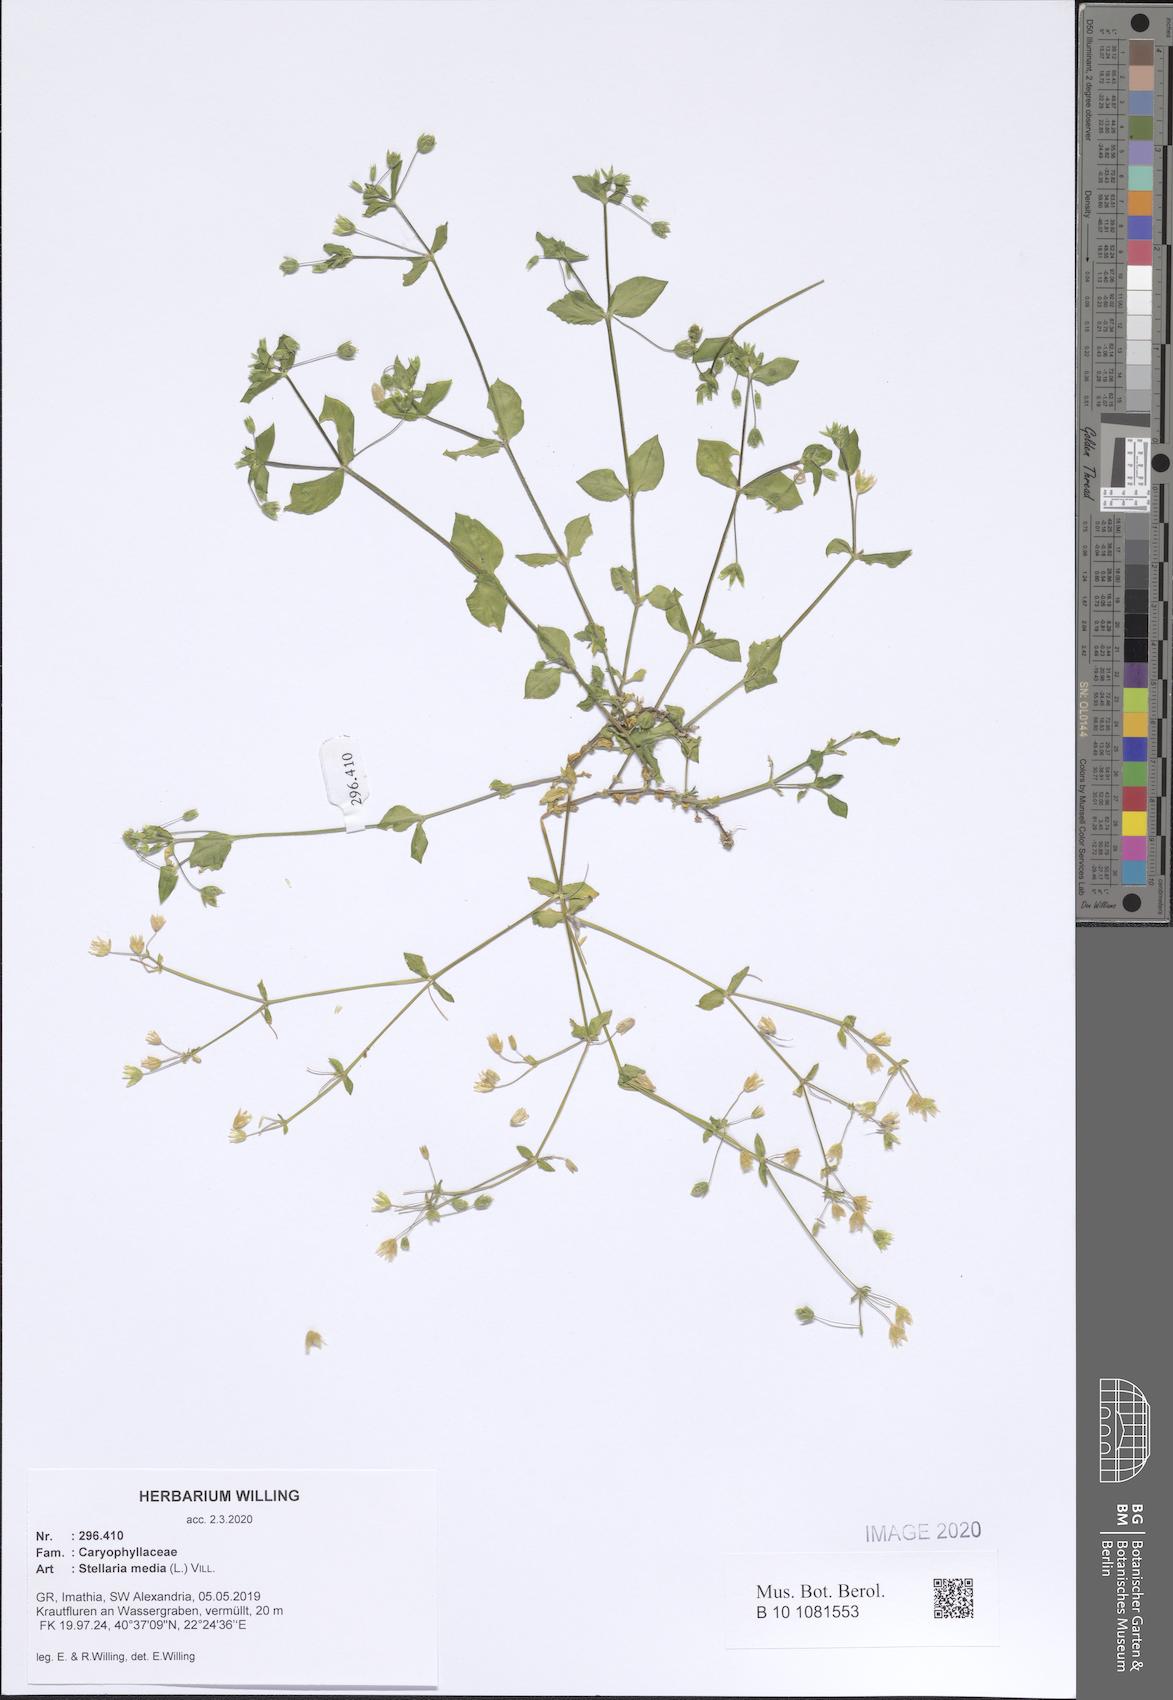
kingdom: Plantae
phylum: Tracheophyta
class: Magnoliopsida
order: Caryophyllales
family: Caryophyllaceae
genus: Stellaria
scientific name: Stellaria media
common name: Common chickweed
